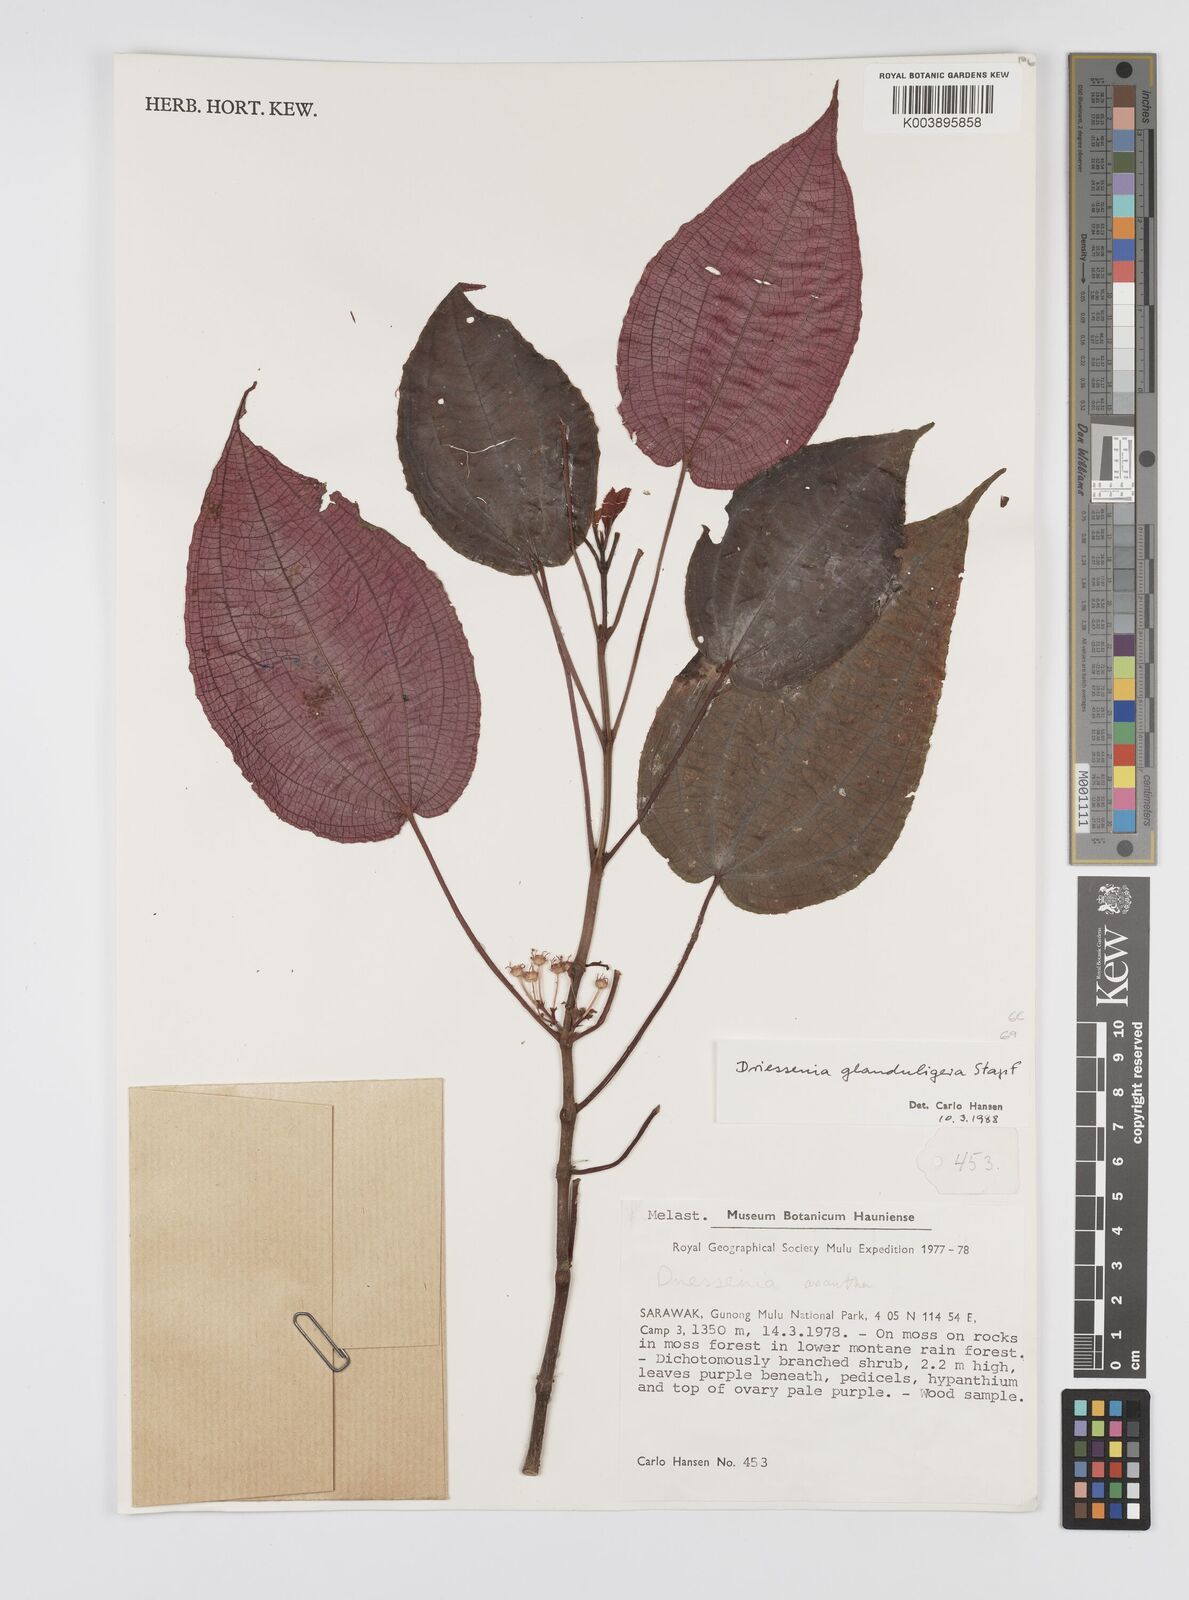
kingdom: Plantae
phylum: Tracheophyta
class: Magnoliopsida
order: Myrtales
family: Melastomataceae
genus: Driessenia
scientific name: Driessenia glanduligera
